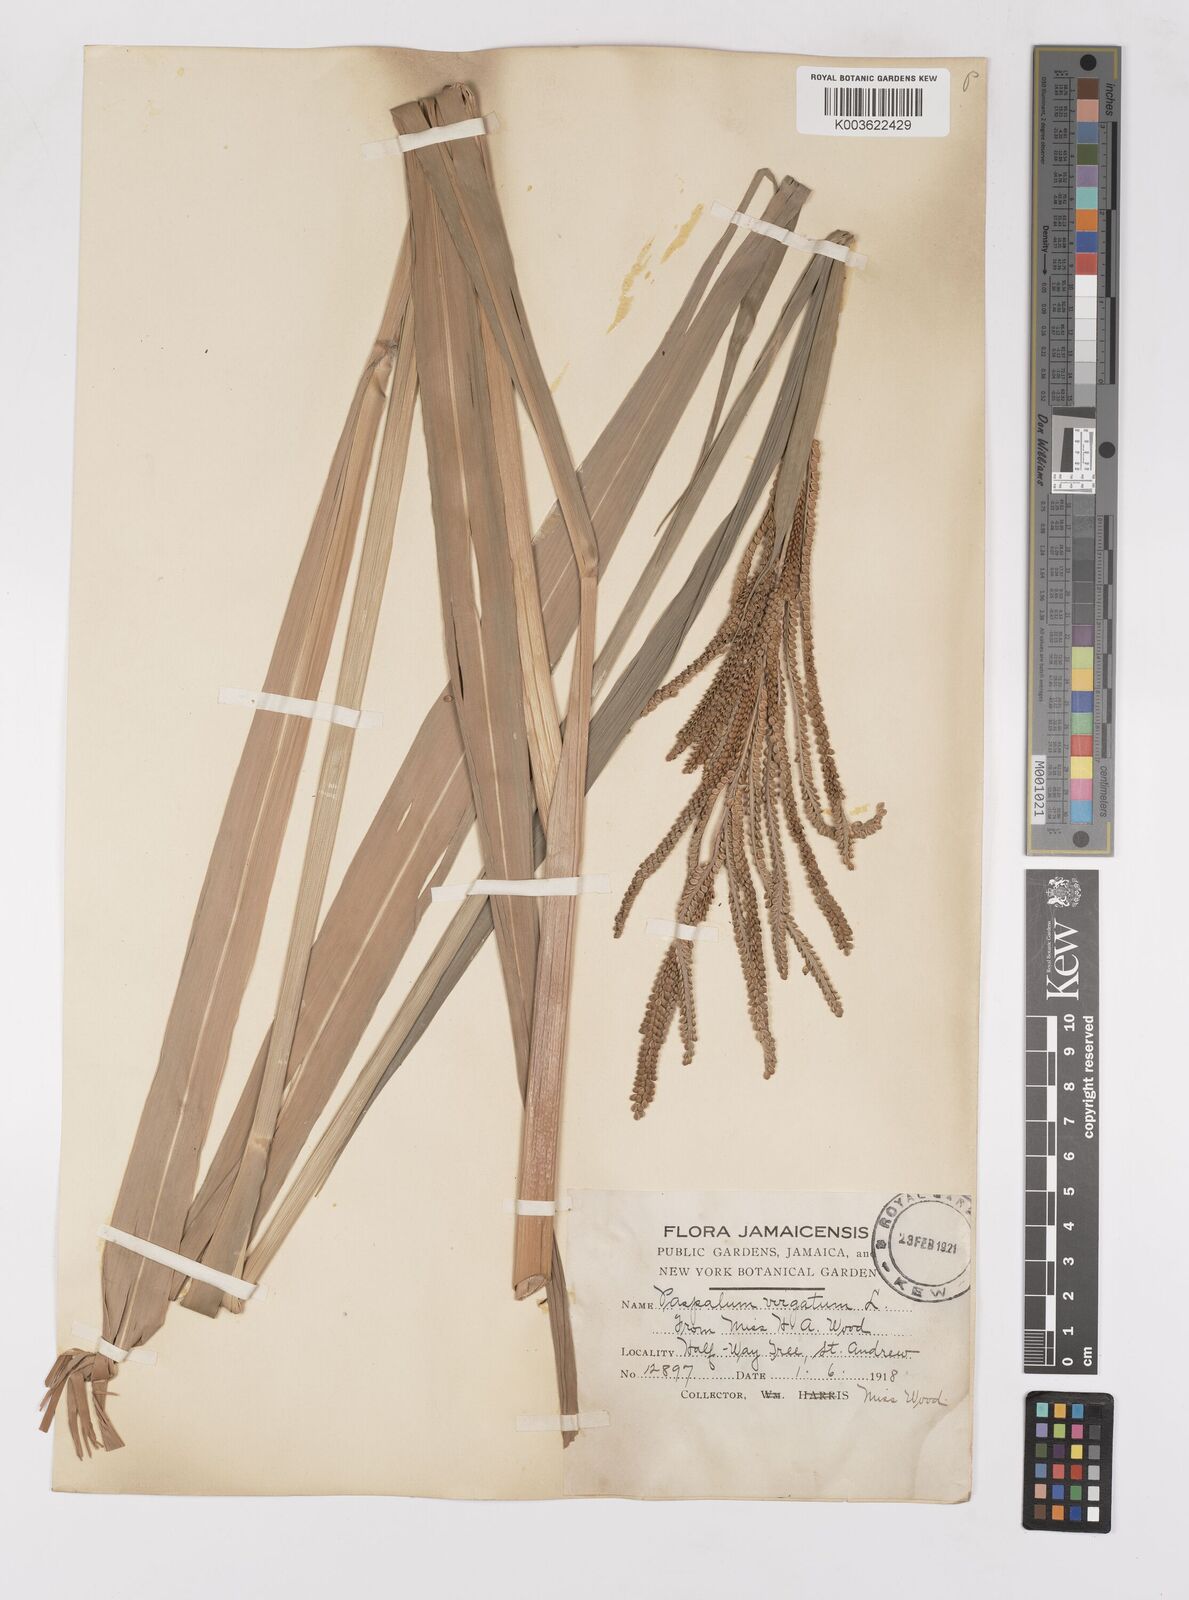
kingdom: Plantae
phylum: Tracheophyta
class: Liliopsida
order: Poales
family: Poaceae
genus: Paspalum
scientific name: Paspalum virgatum
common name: Talquezal
